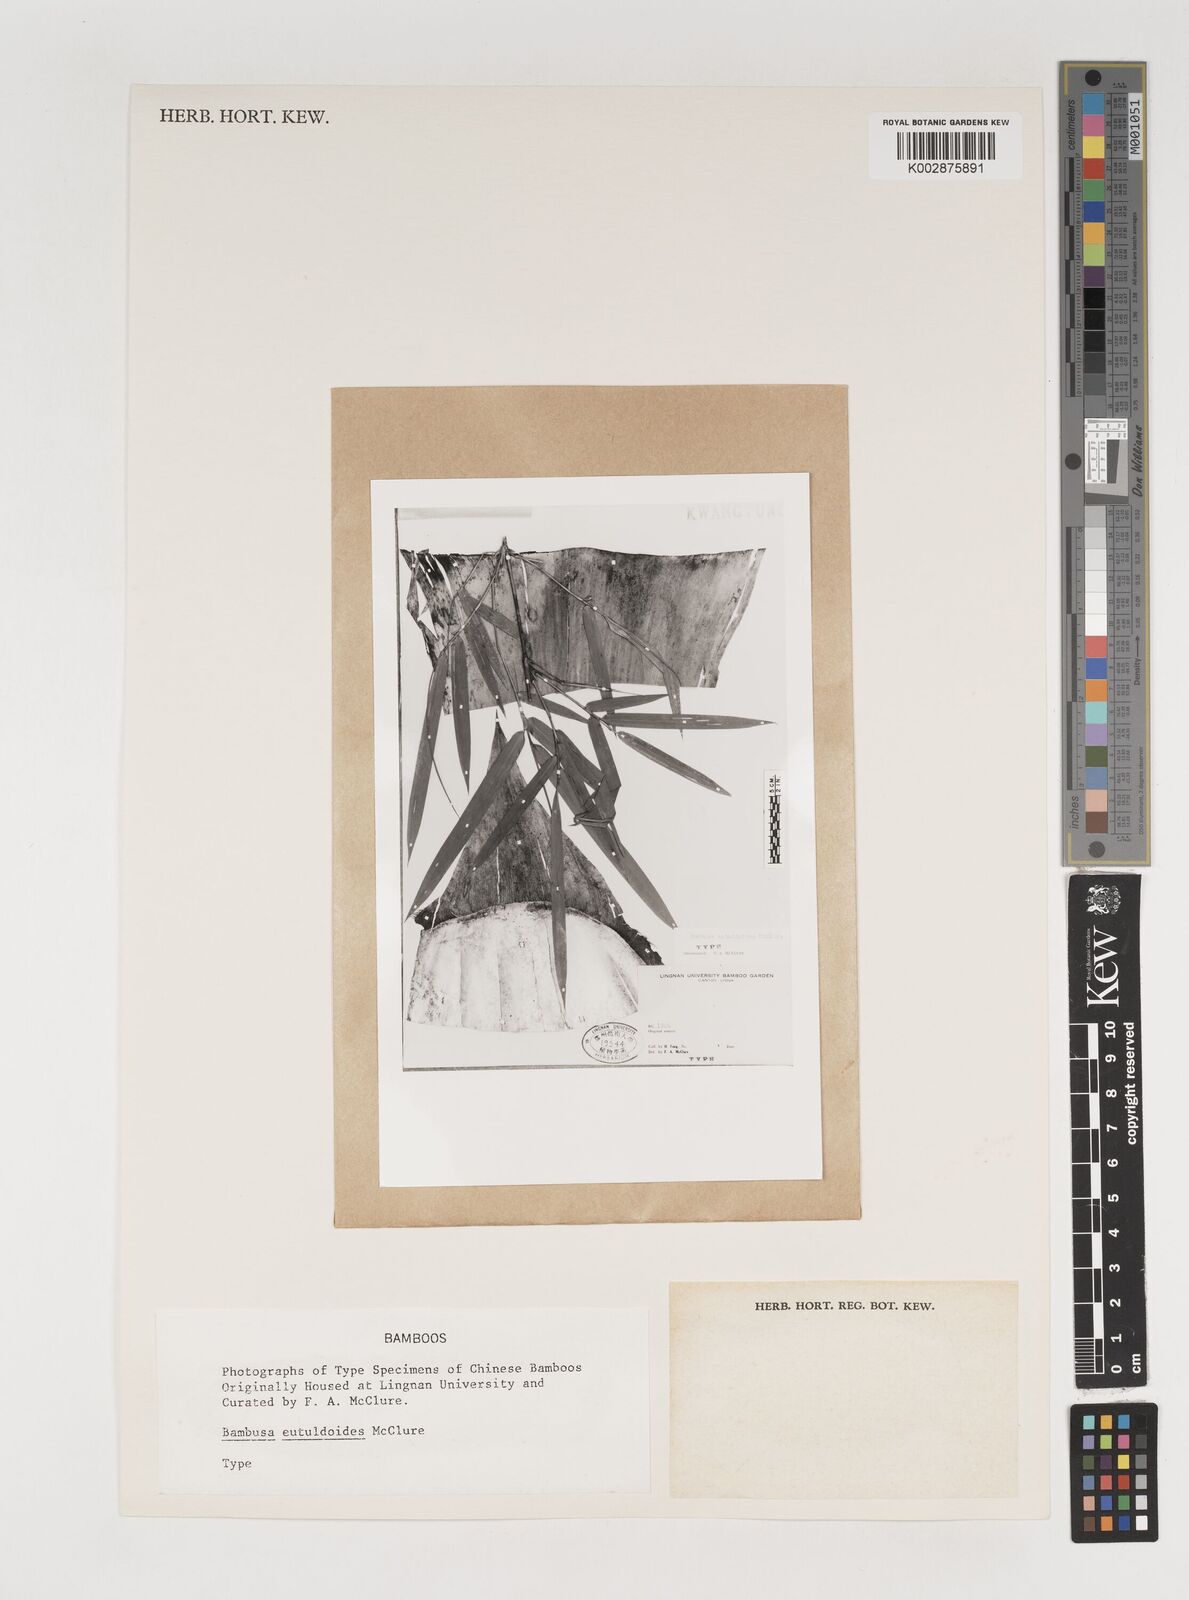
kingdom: Plantae
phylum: Tracheophyta
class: Liliopsida
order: Poales
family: Poaceae
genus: Bambusa
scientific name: Bambusa eutuldoides
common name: Dai ngan bamboo
